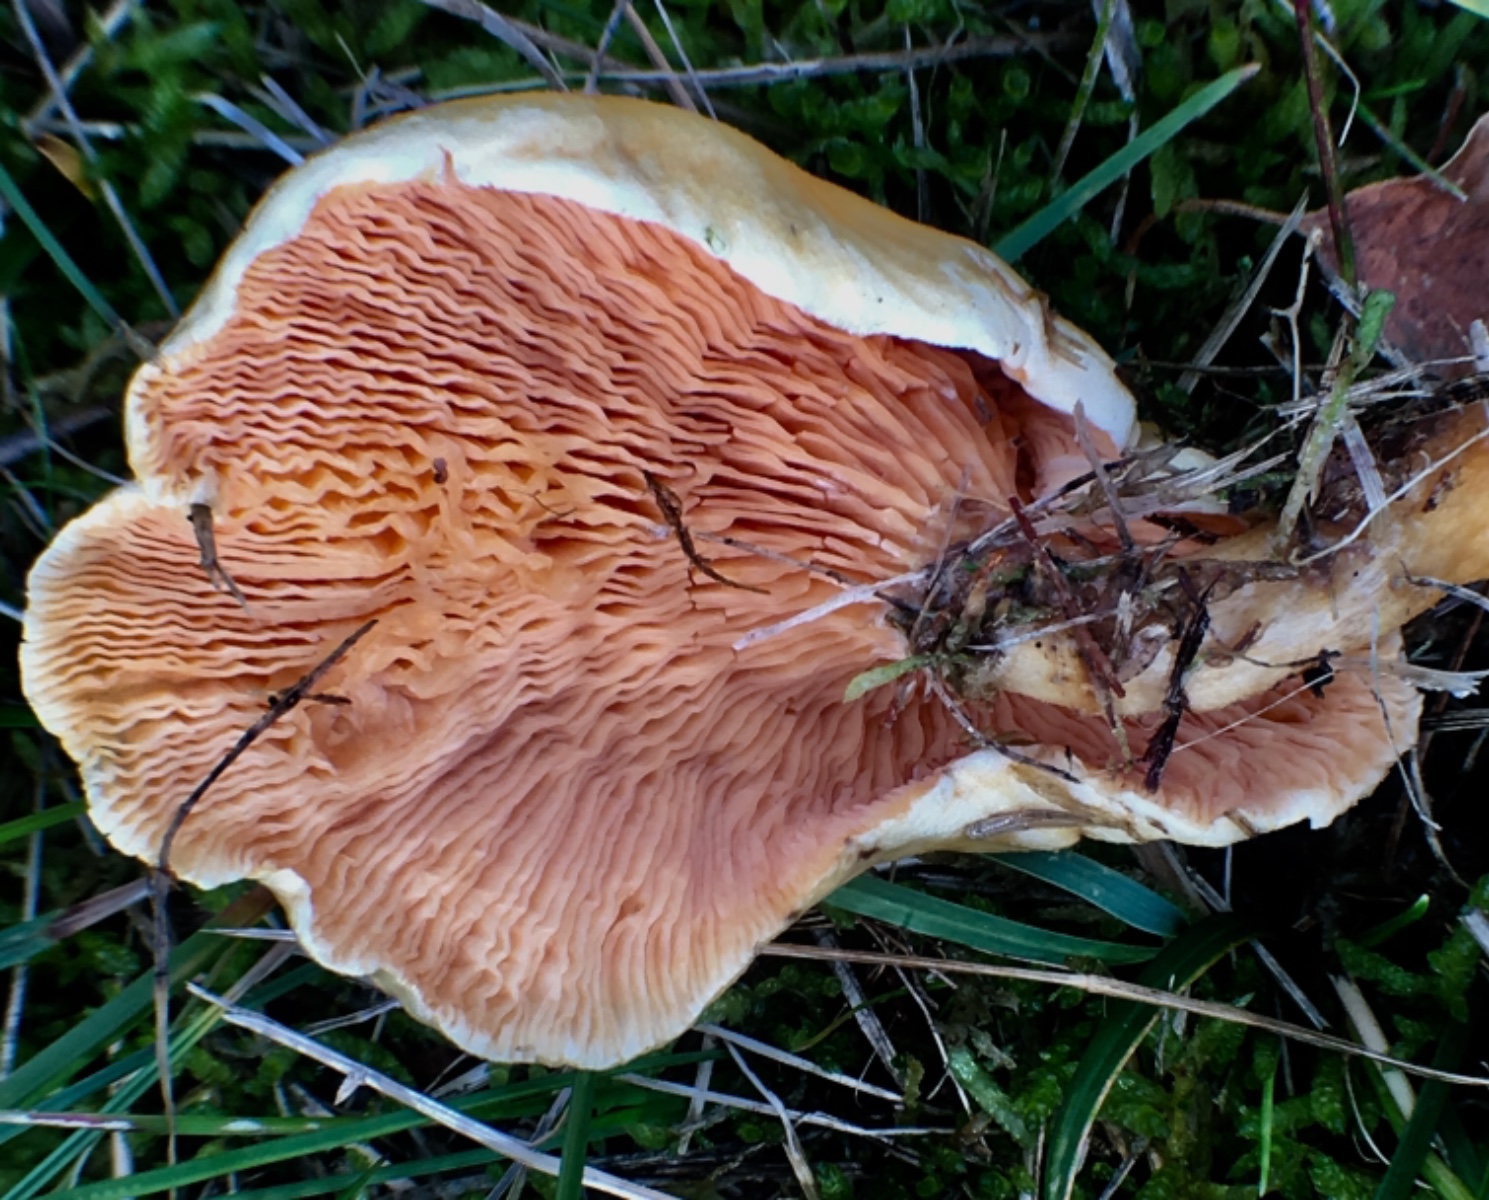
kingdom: Fungi
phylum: Basidiomycota
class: Agaricomycetes
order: Boletales
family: Hygrophoropsidaceae
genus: Hygrophoropsis
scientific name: Hygrophoropsis
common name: orangekantarel
